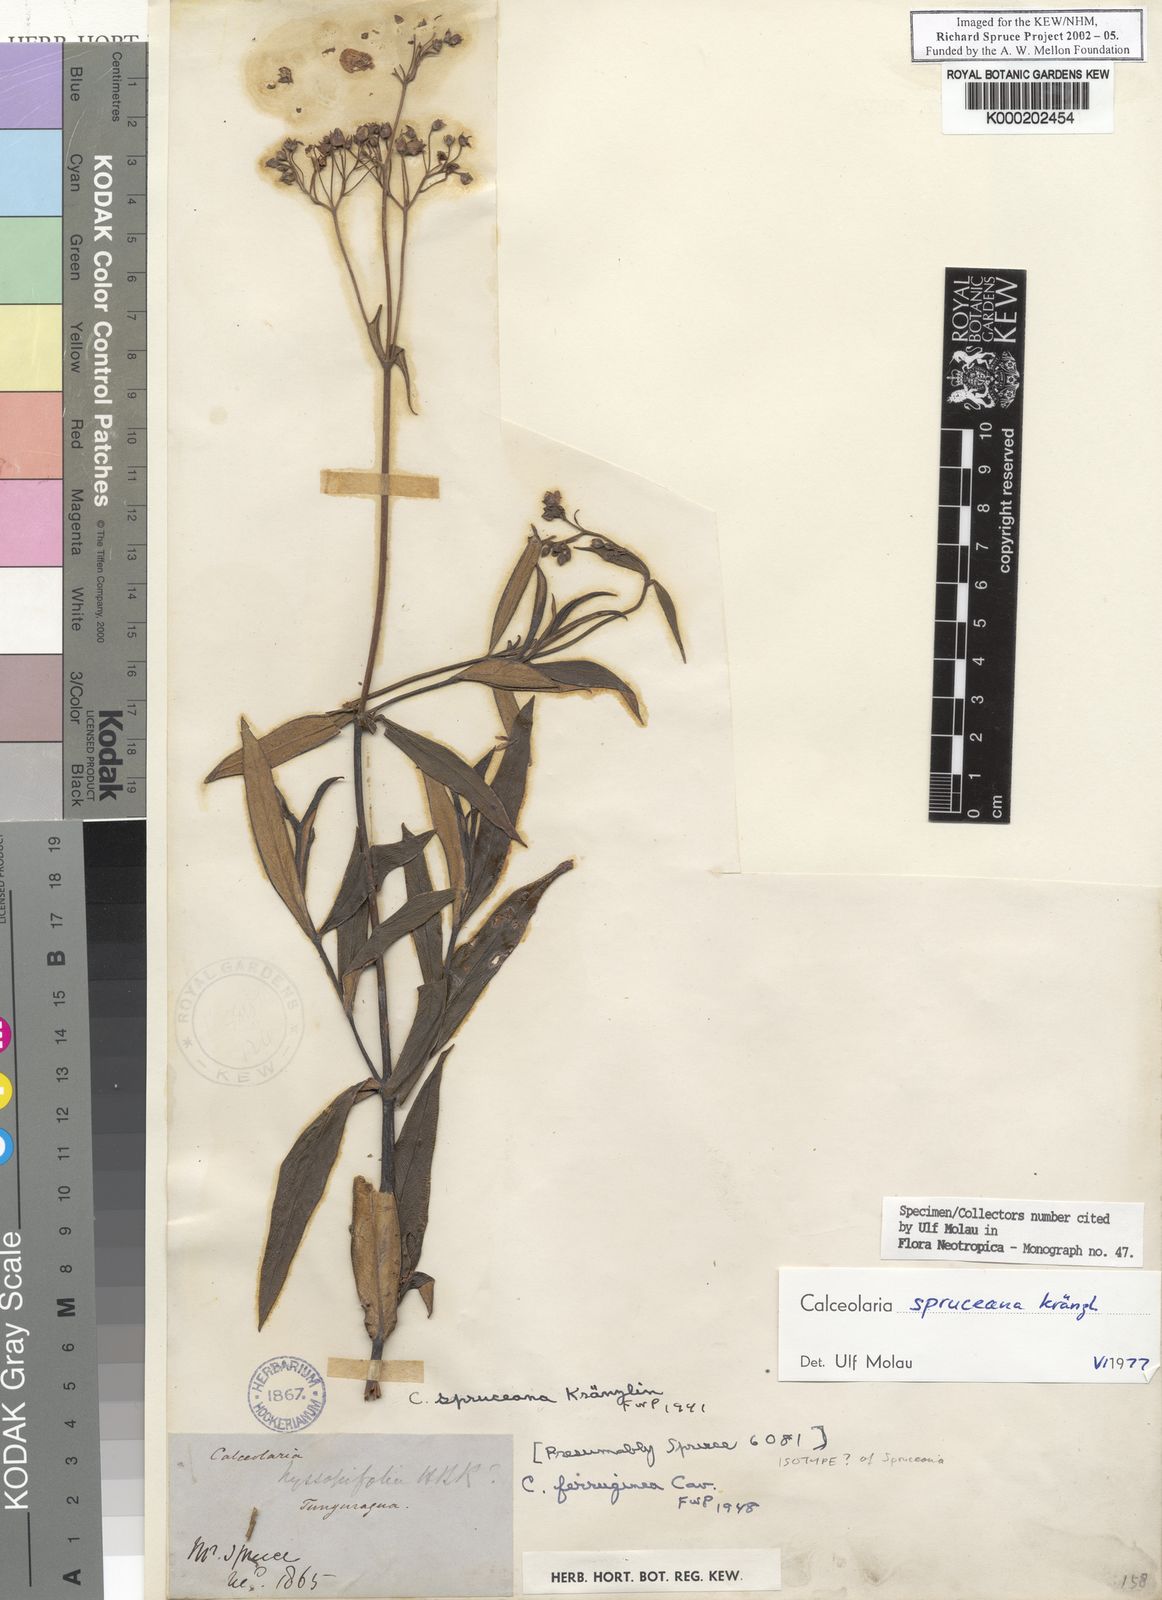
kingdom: Plantae
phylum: Tracheophyta
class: Magnoliopsida
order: Lamiales
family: Calceolariaceae
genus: Calceolaria
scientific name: Calceolaria spruceana
